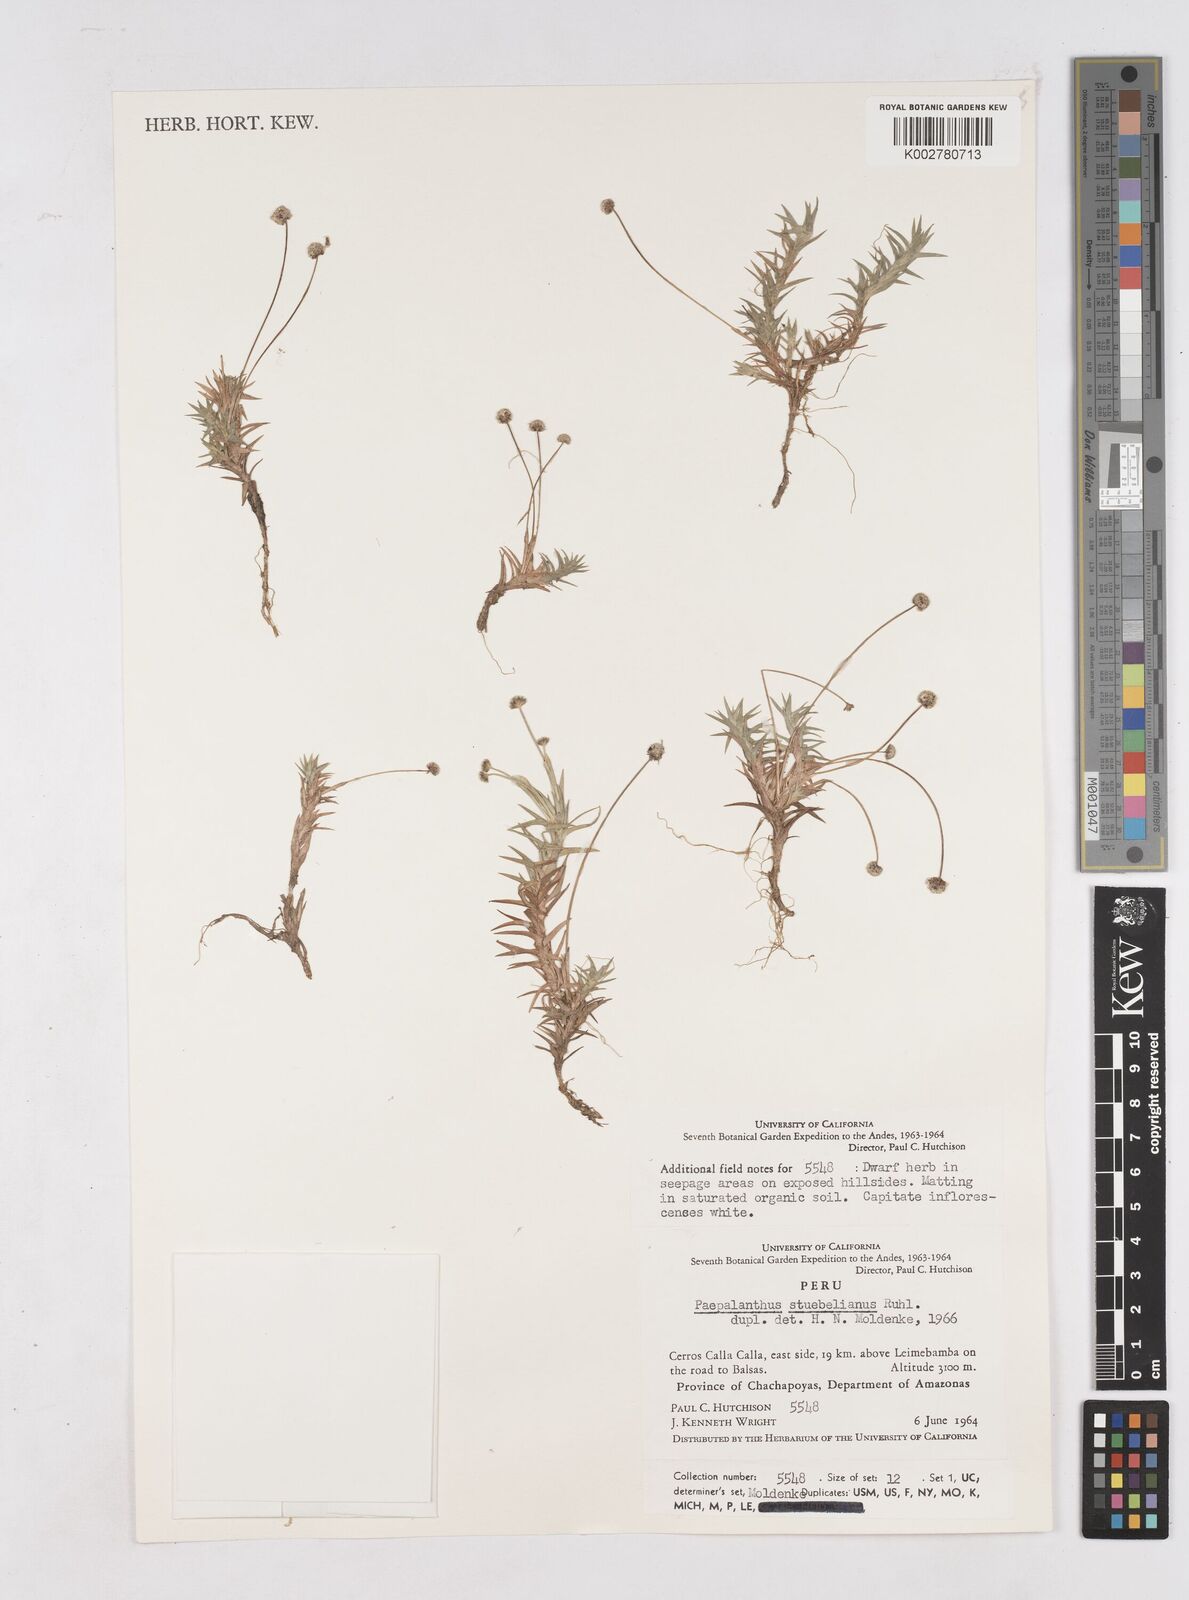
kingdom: Plantae
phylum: Tracheophyta
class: Liliopsida
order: Poales
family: Eriocaulaceae
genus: Paepalanthus
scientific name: Paepalanthus intermedius
